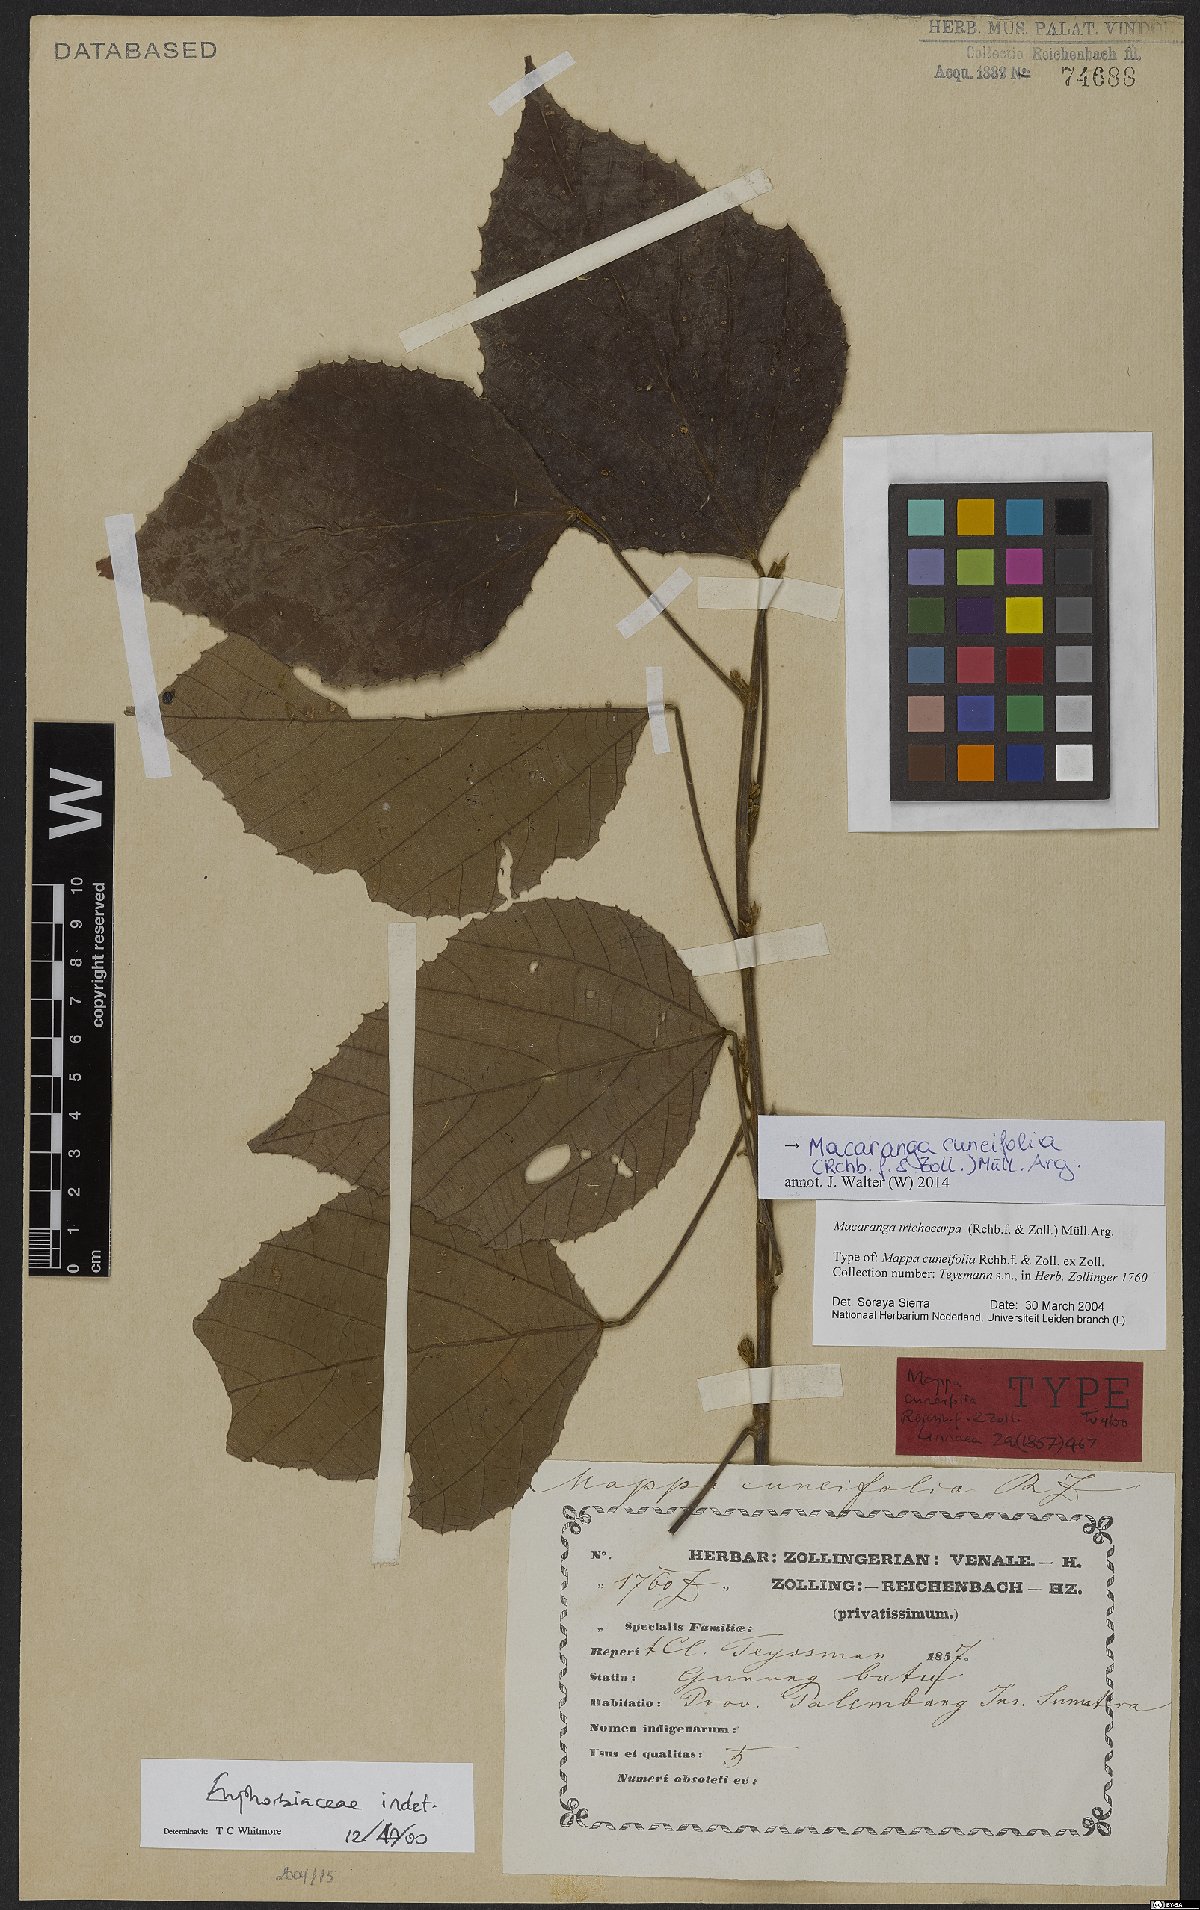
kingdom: Plantae
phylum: Tracheophyta
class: Magnoliopsida
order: Malpighiales
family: Euphorbiaceae
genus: Macaranga
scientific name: Macaranga cuneifolia
